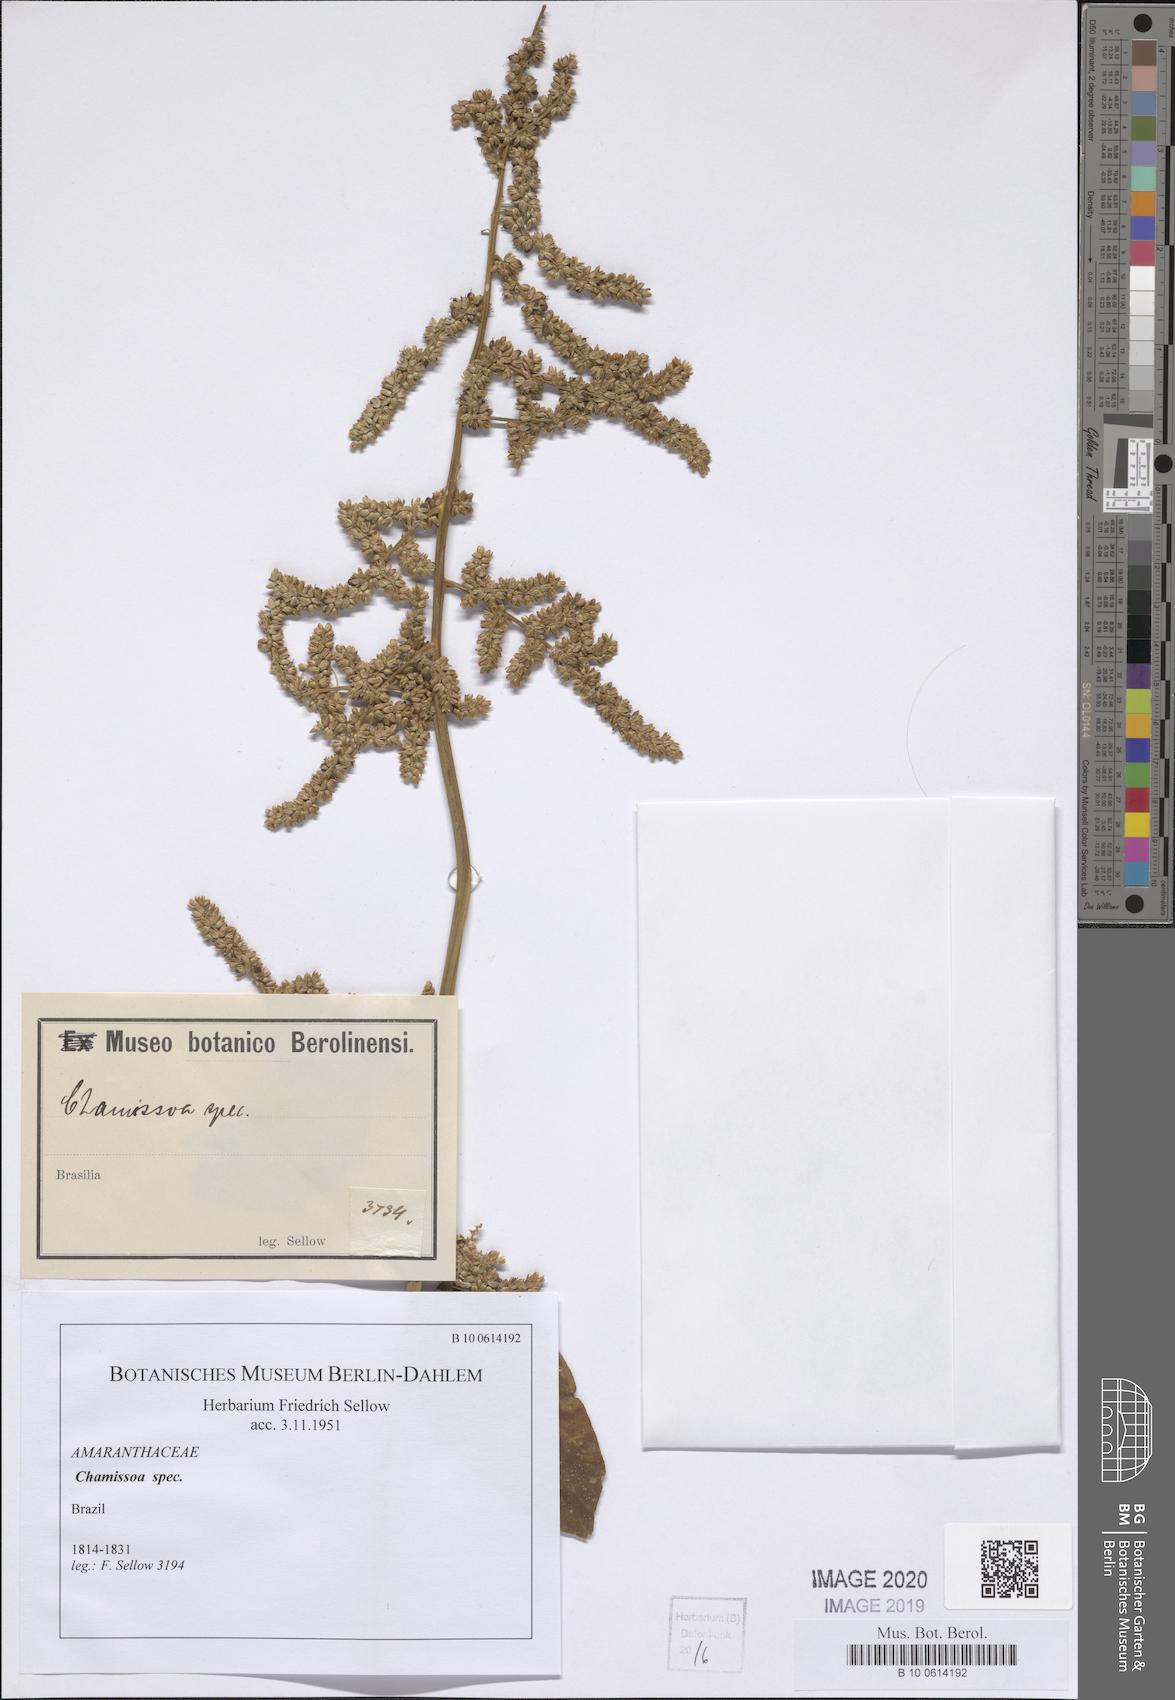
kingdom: Plantae
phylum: Tracheophyta
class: Magnoliopsida
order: Caryophyllales
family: Amaranthaceae
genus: Chamissoa
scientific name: Chamissoa
